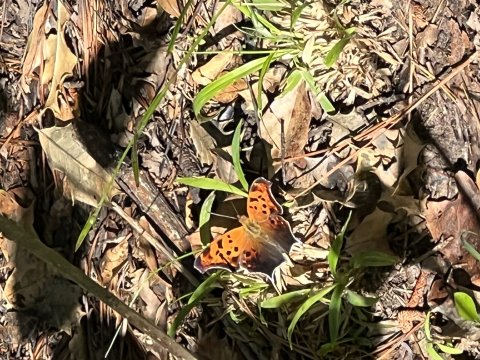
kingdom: Animalia
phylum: Arthropoda
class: Insecta
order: Lepidoptera
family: Nymphalidae
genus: Polygonia
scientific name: Polygonia interrogationis
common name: Question Mark
